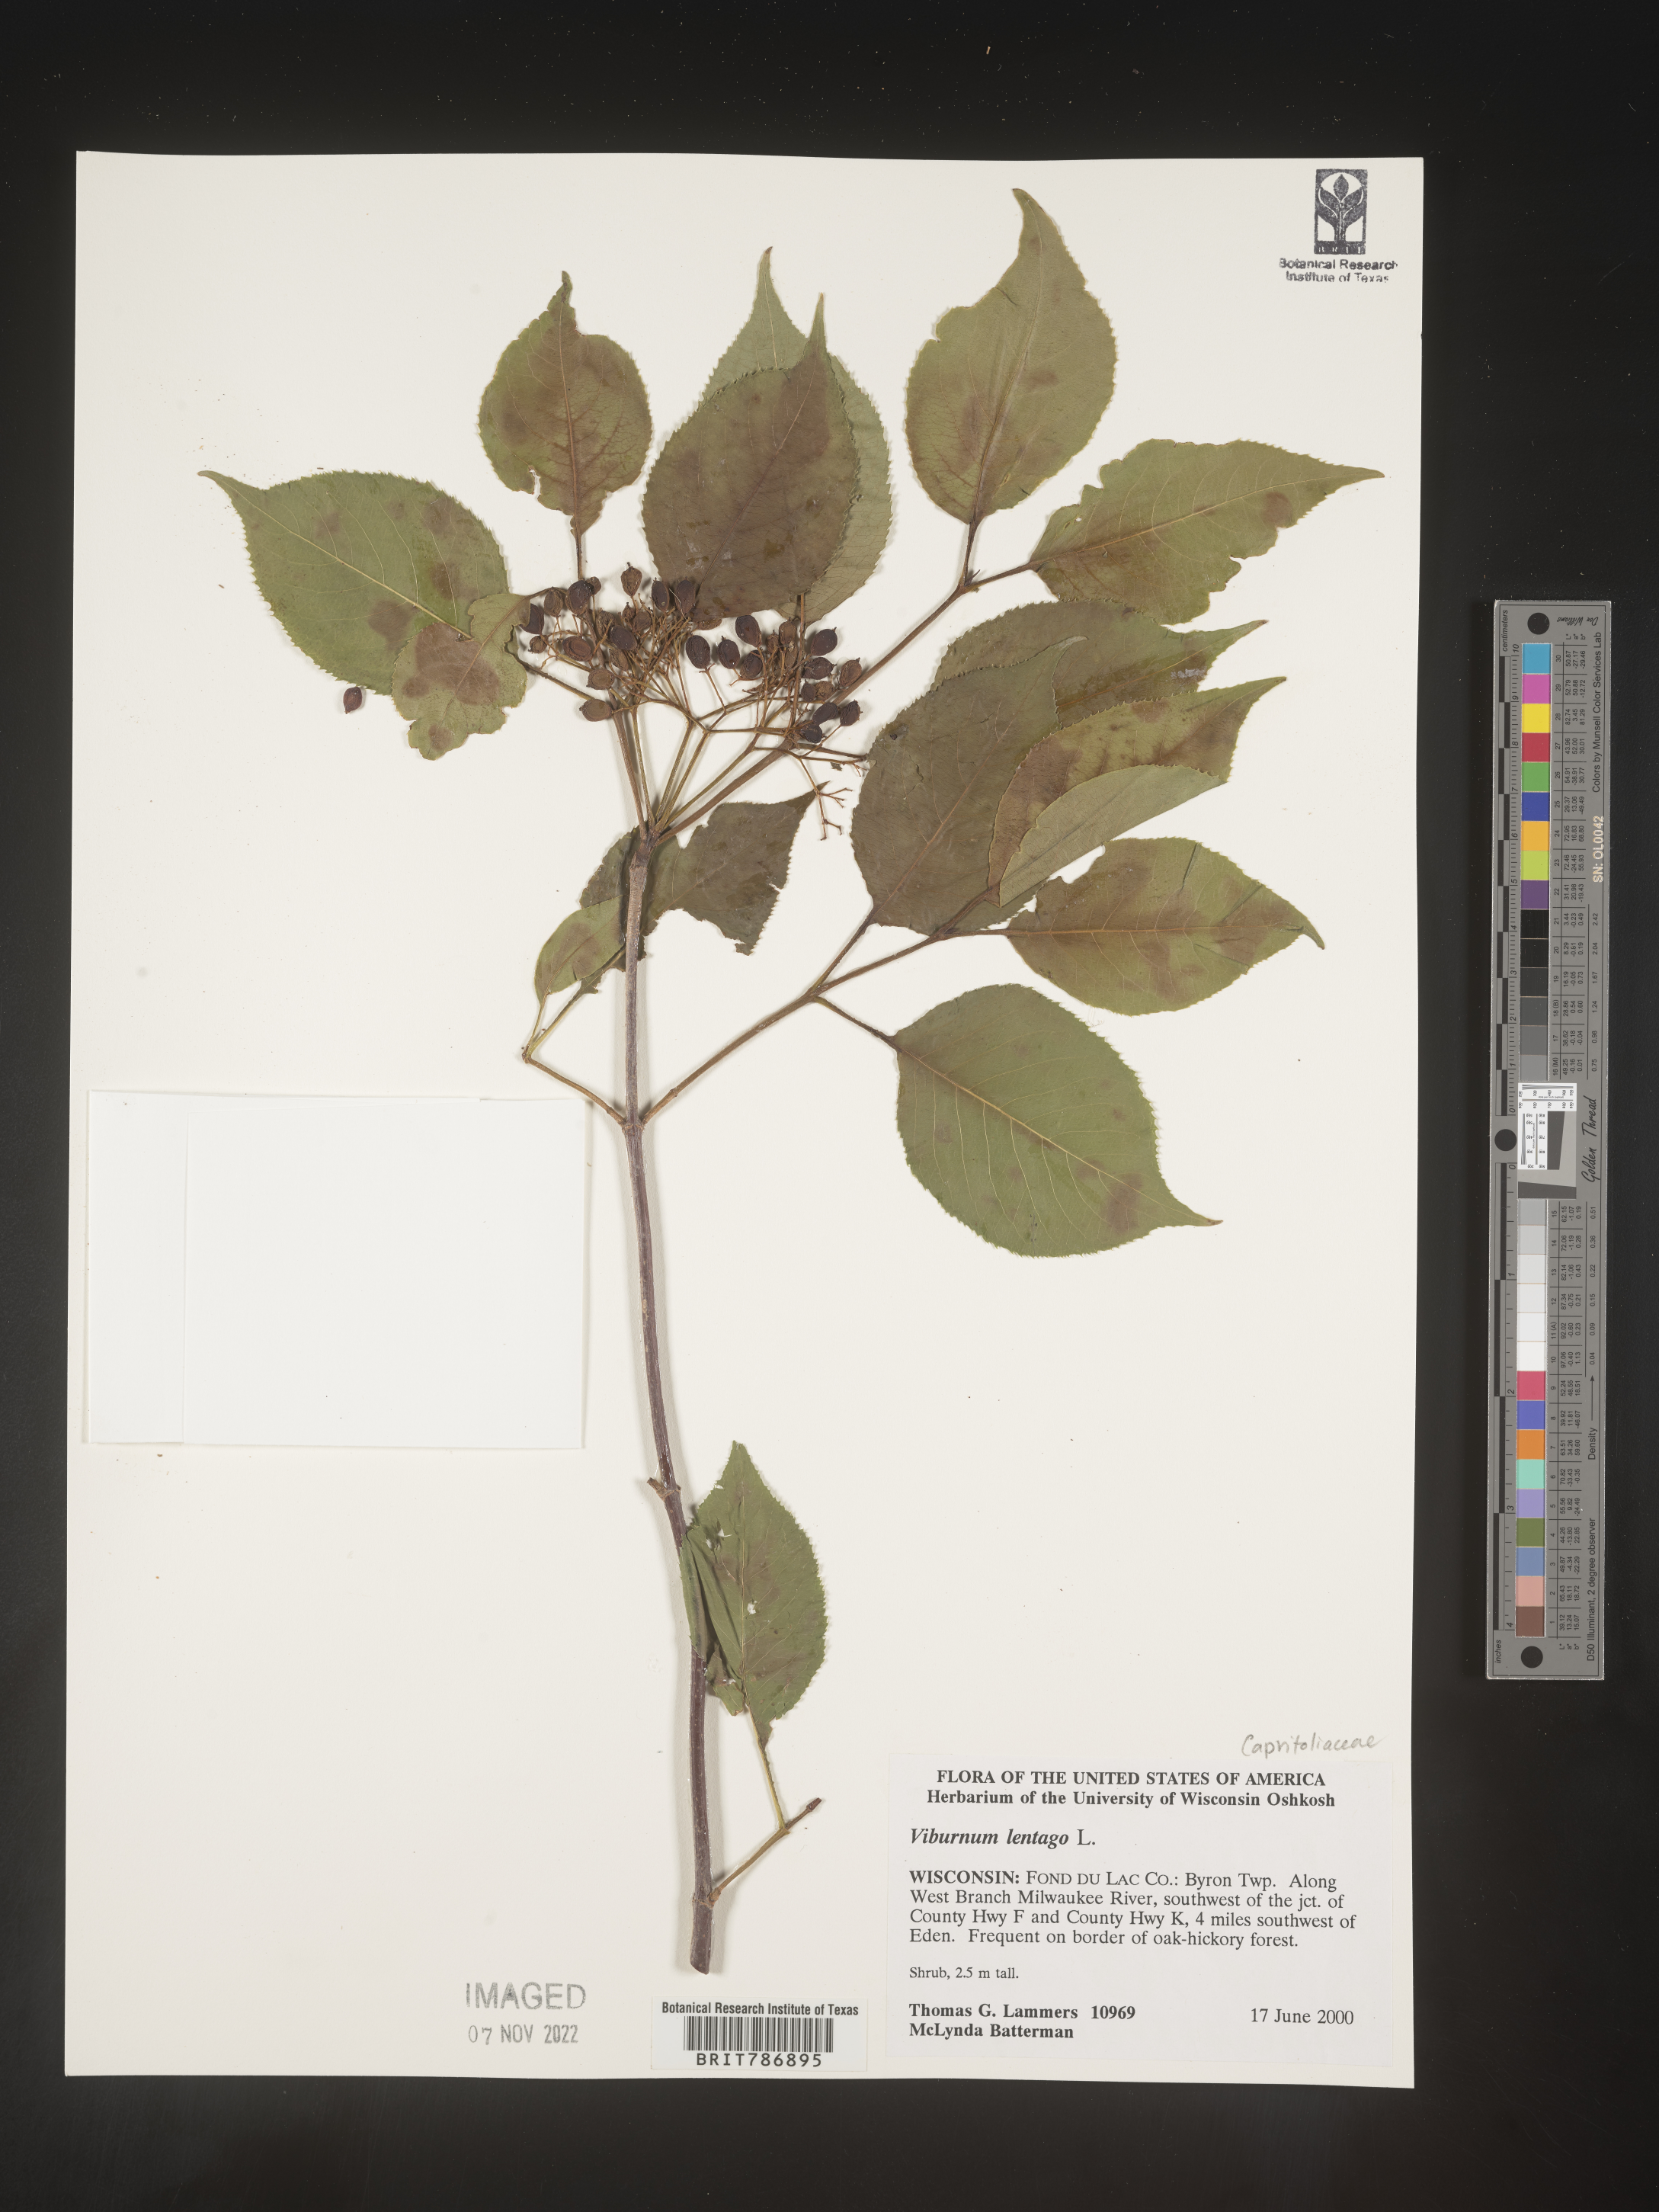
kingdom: Plantae
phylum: Tracheophyta
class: Magnoliopsida
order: Dipsacales
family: Viburnaceae
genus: Viburnum
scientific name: Viburnum lentago
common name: Black haw
